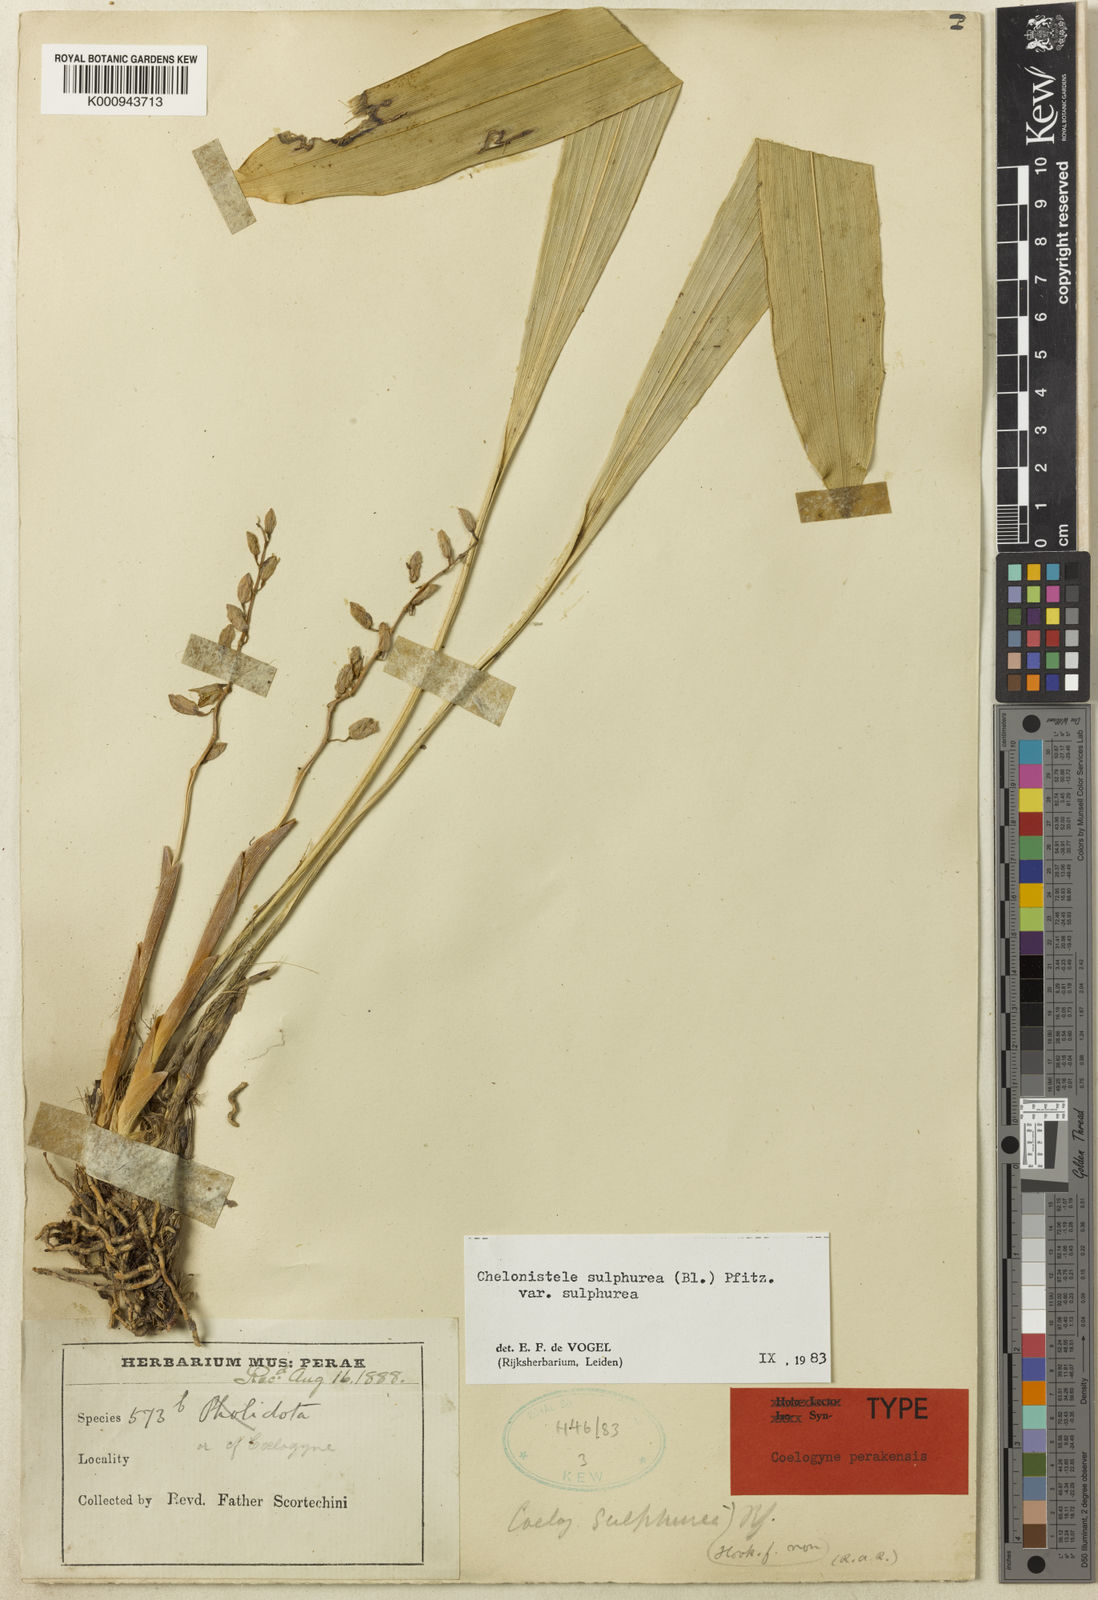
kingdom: Plantae
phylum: Tracheophyta
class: Liliopsida
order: Asparagales
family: Orchidaceae
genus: Coelogyne
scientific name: Coelogyne sulphurea
